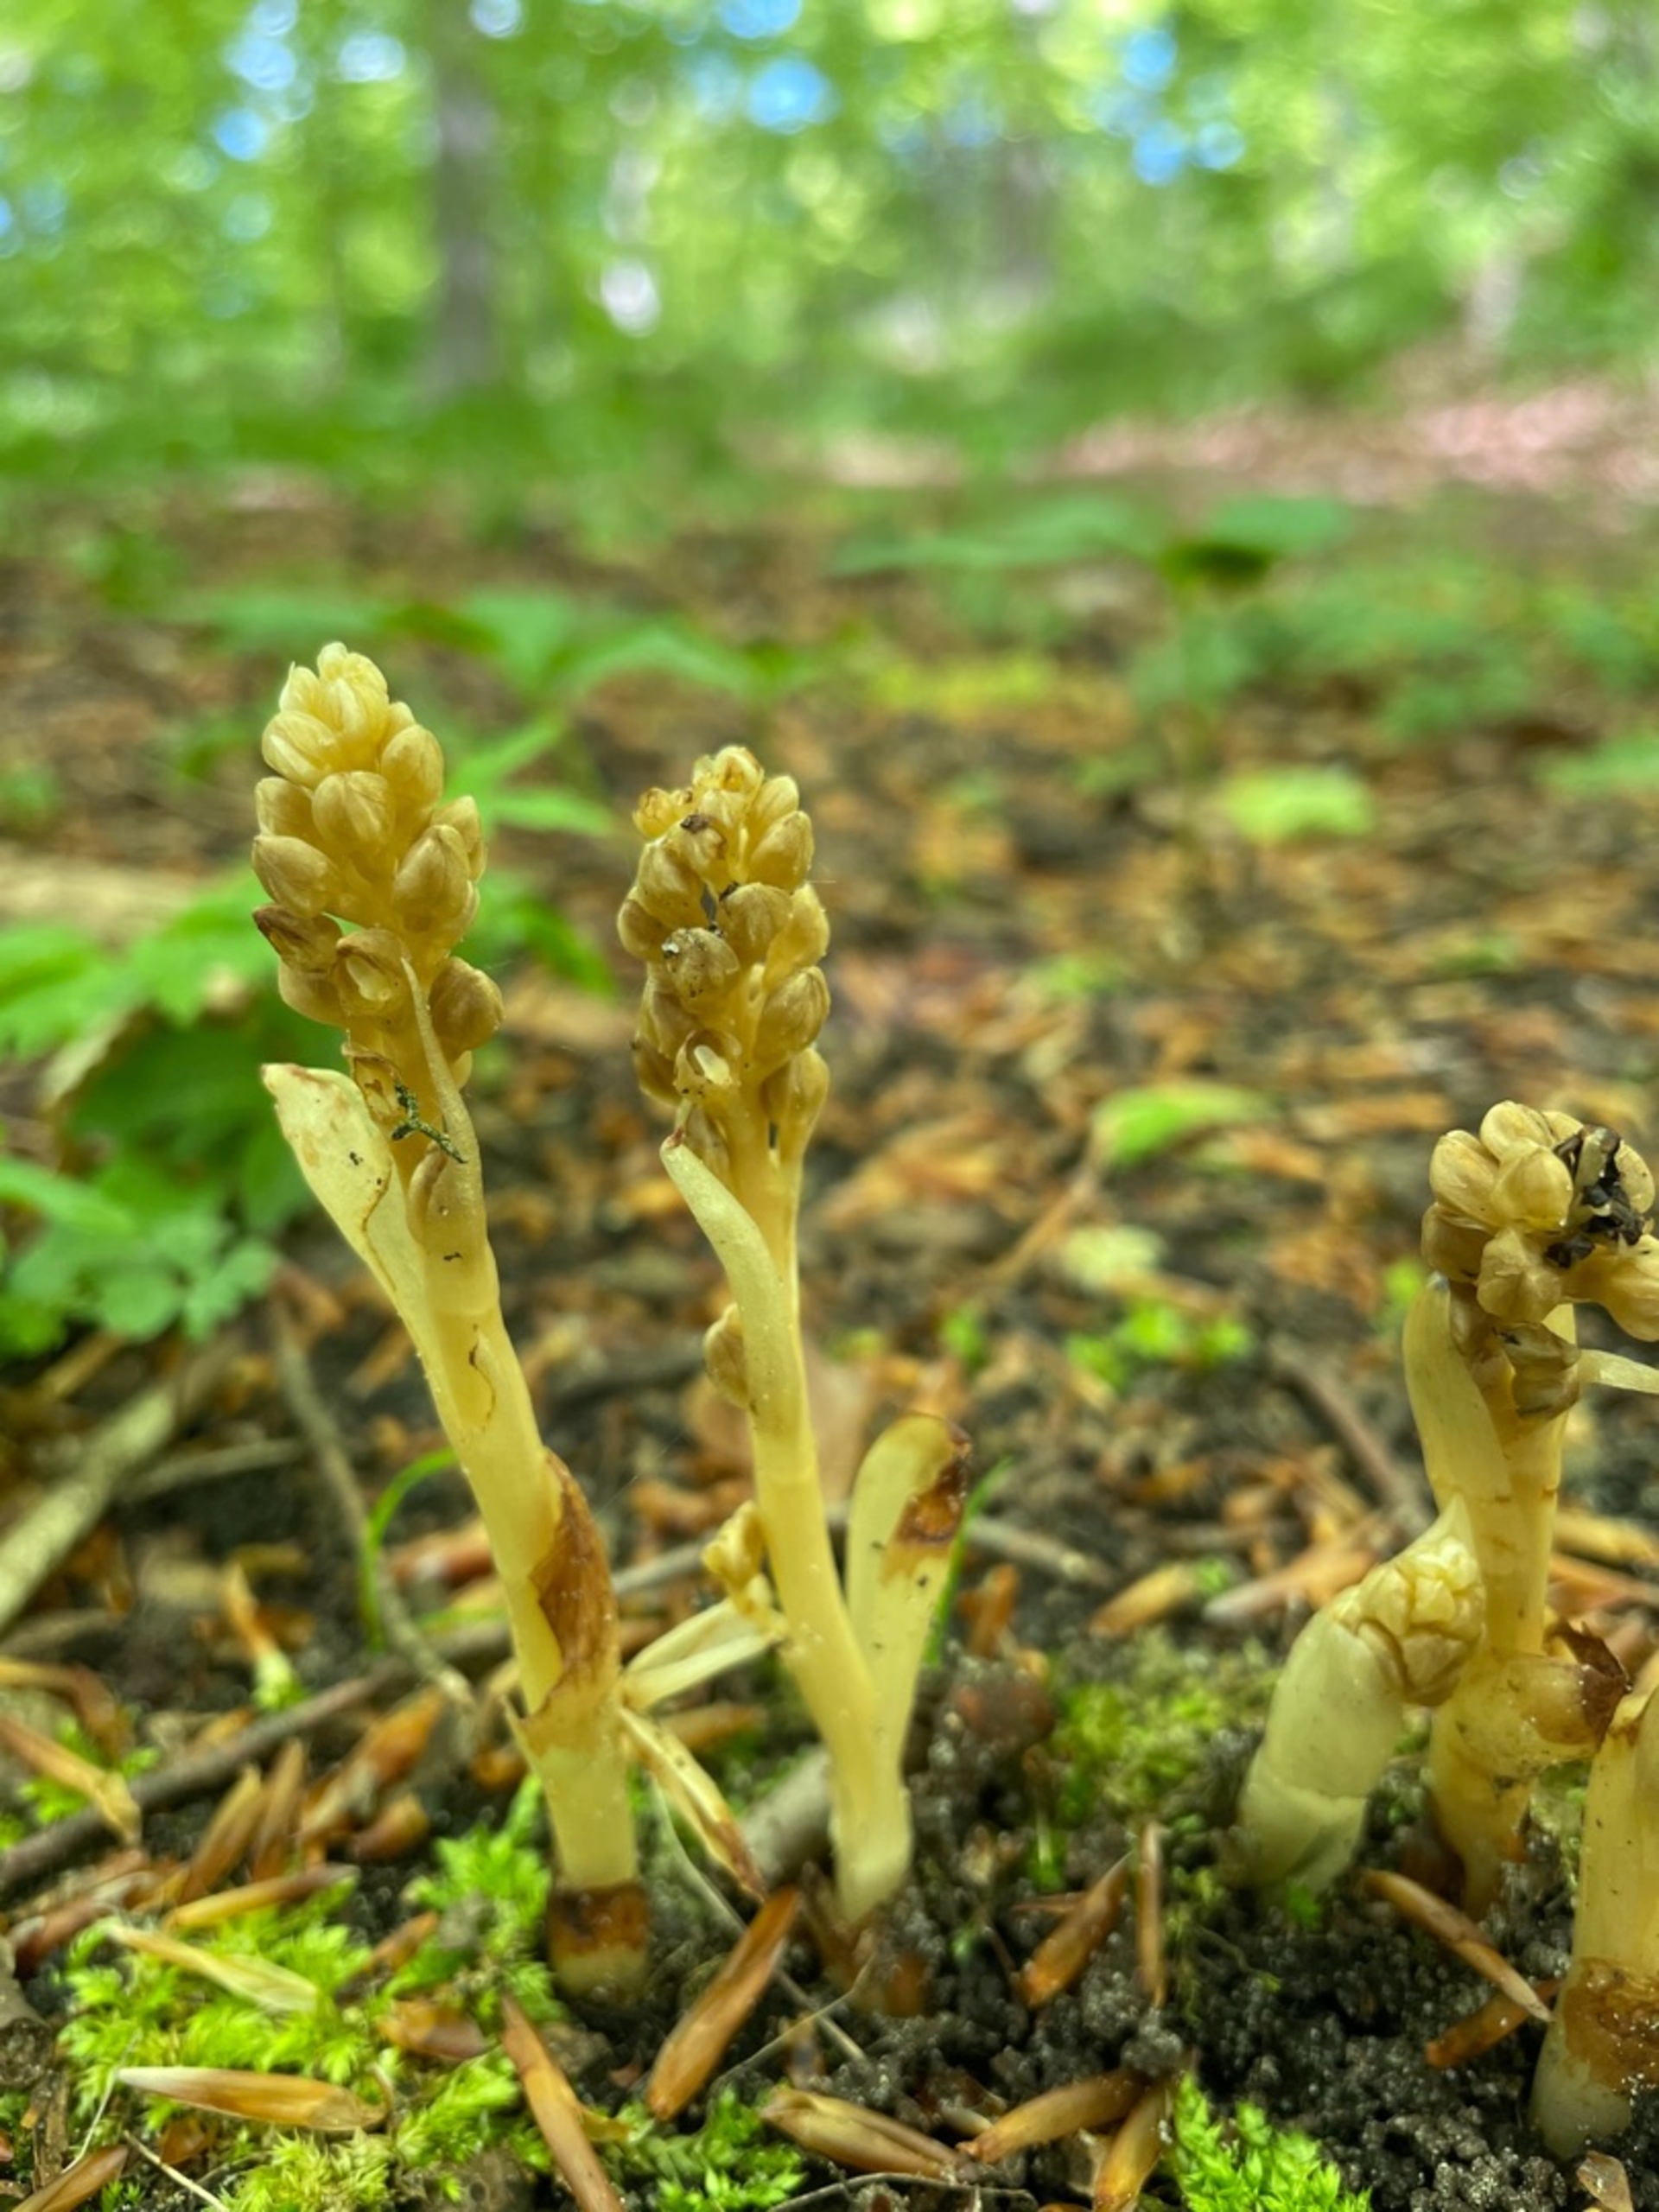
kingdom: Plantae
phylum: Tracheophyta
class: Liliopsida
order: Asparagales
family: Orchidaceae
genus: Neottia
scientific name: Neottia nidus-avis
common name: Rederod
